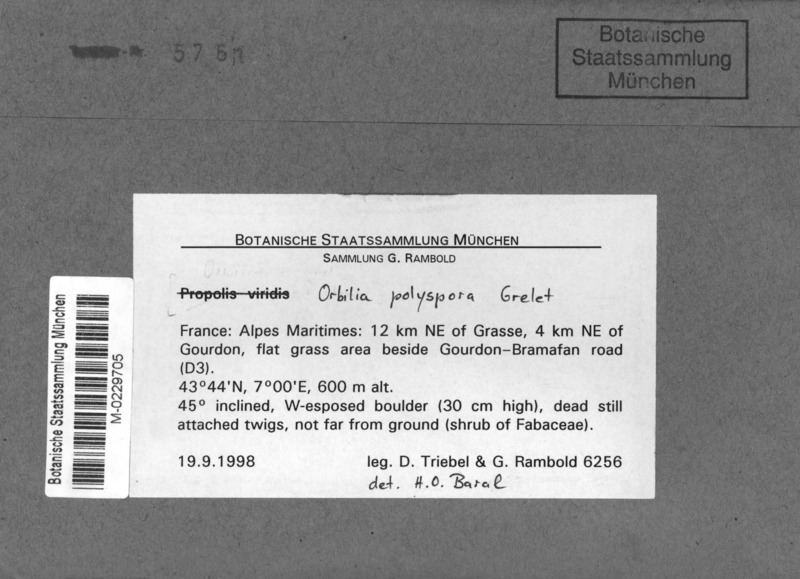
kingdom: Fungi
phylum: Ascomycota
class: Orbiliomycetes
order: Orbiliales
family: Orbiliaceae
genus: Orbilia
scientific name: Orbilia polyspora
